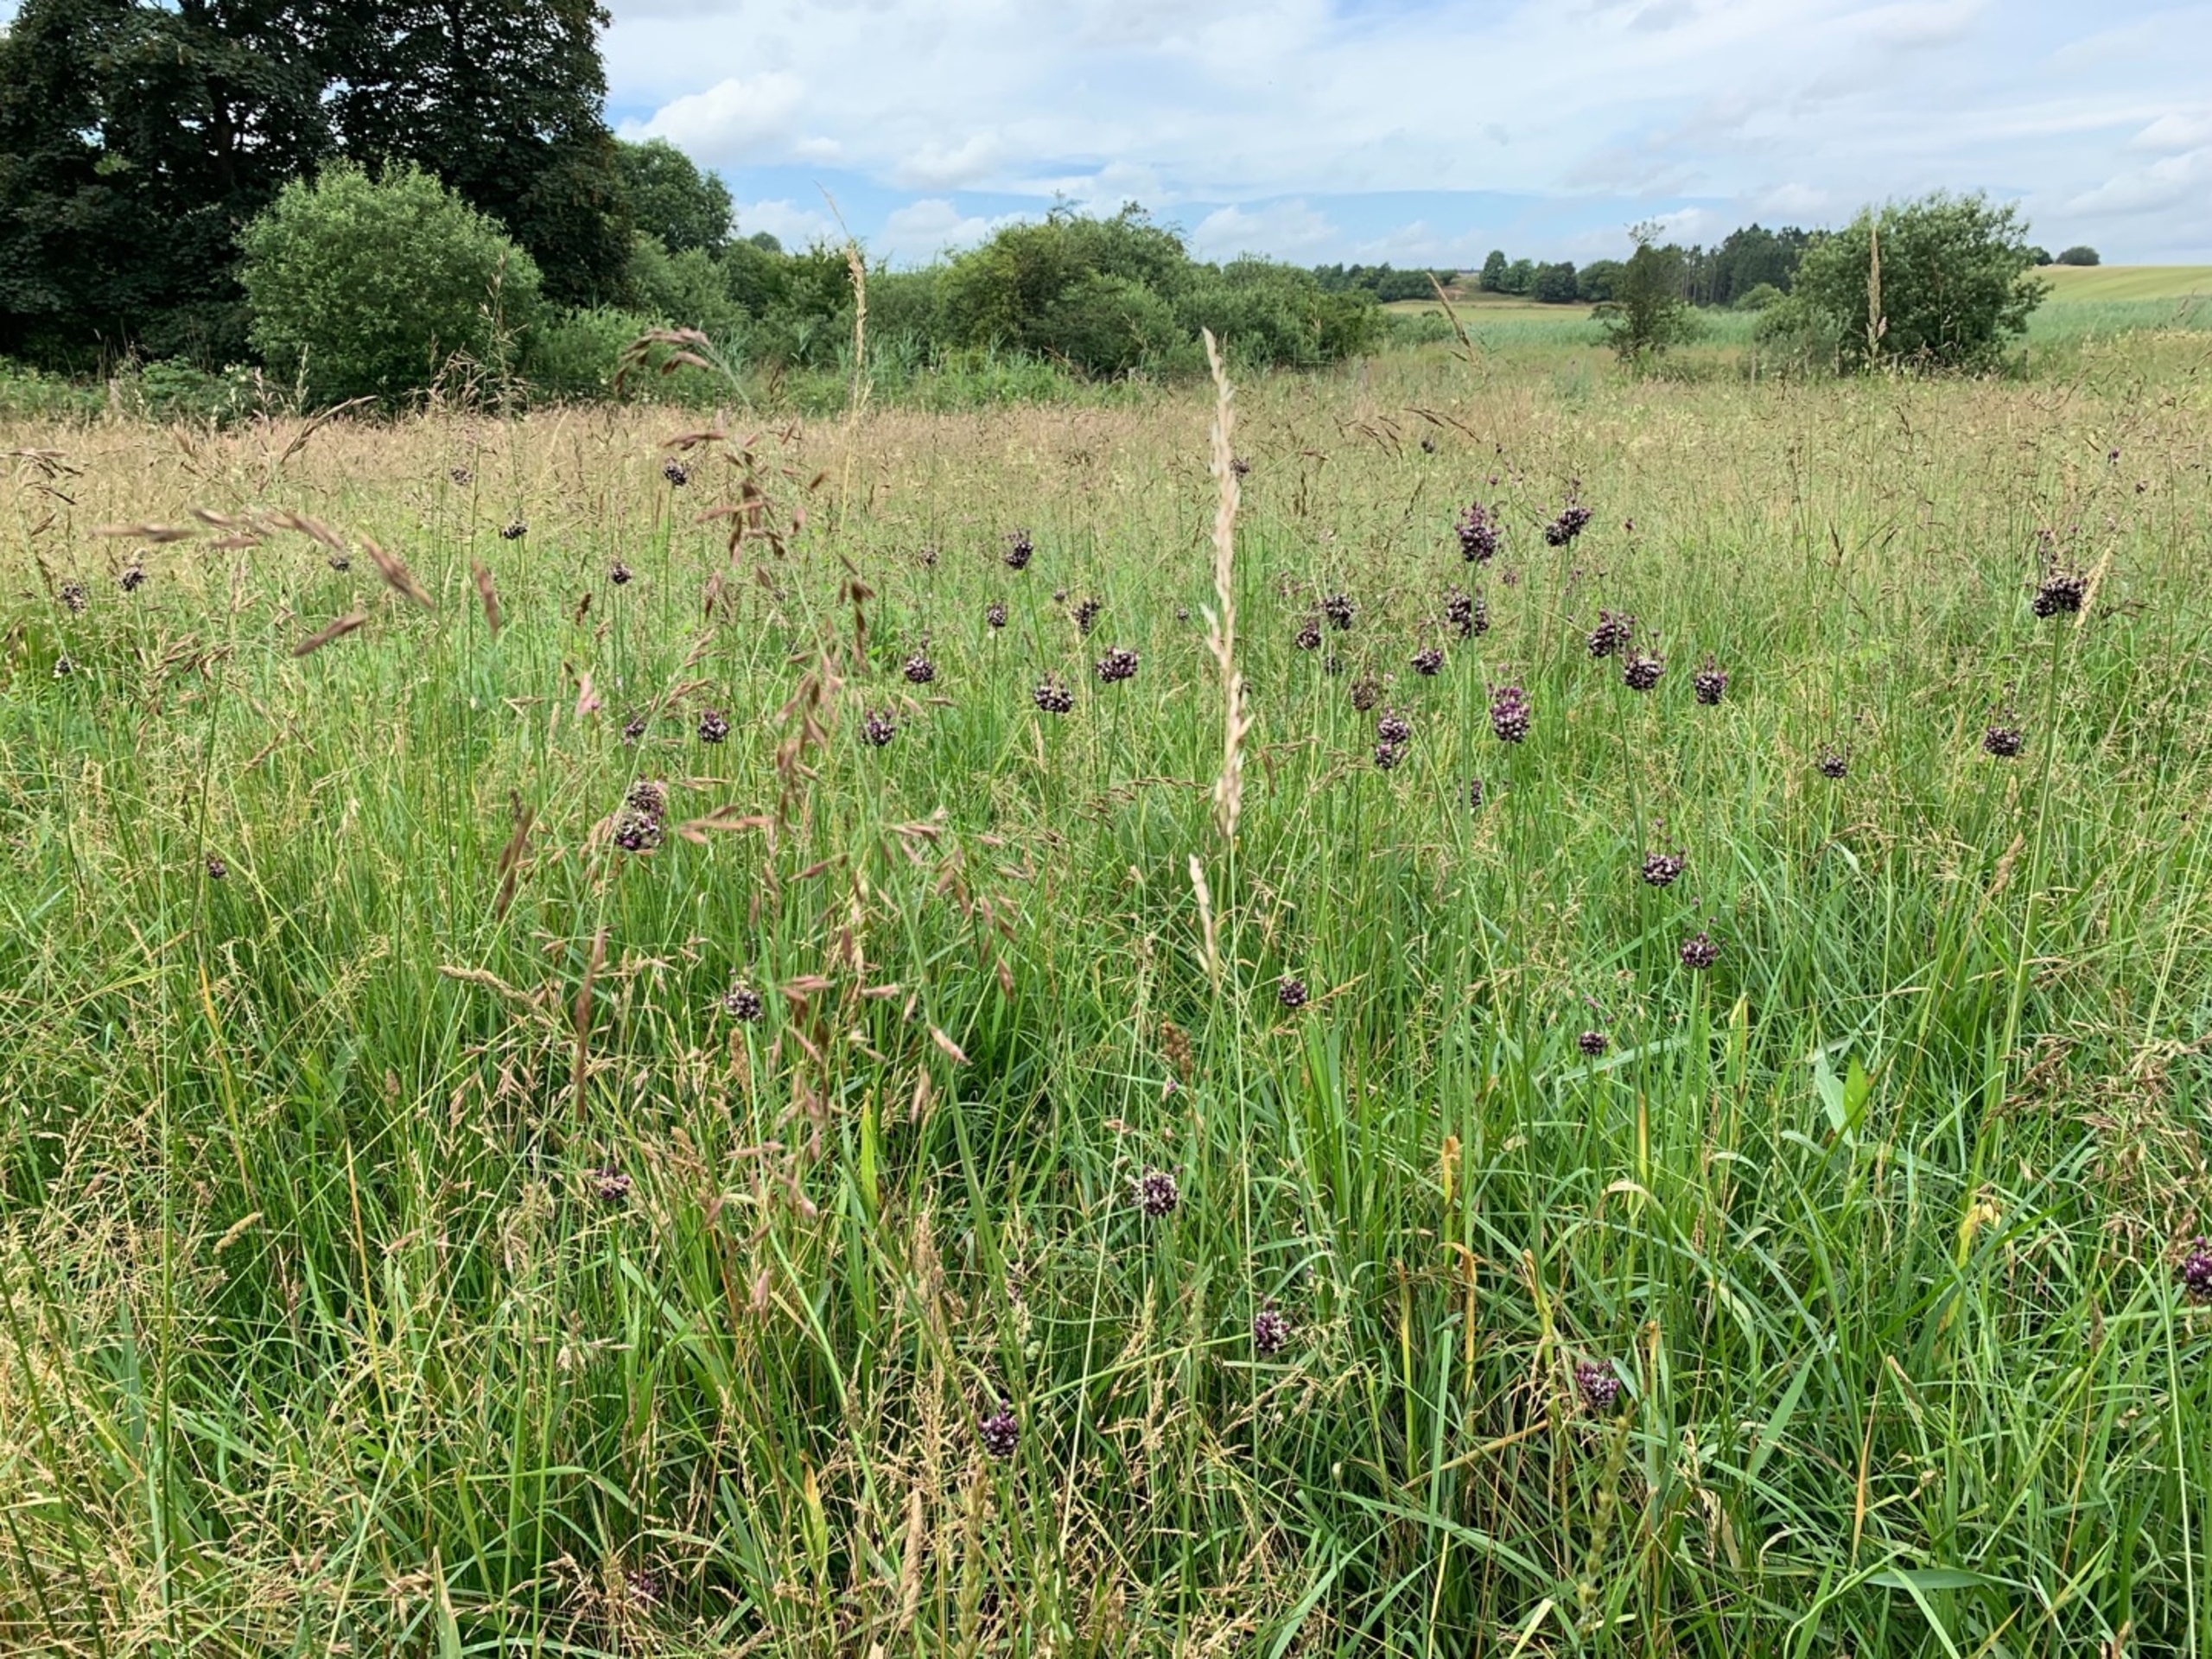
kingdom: Plantae
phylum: Tracheophyta
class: Liliopsida
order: Asparagales
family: Amaryllidaceae
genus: Allium
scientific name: Allium scorodoprasum
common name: Skov-løg
